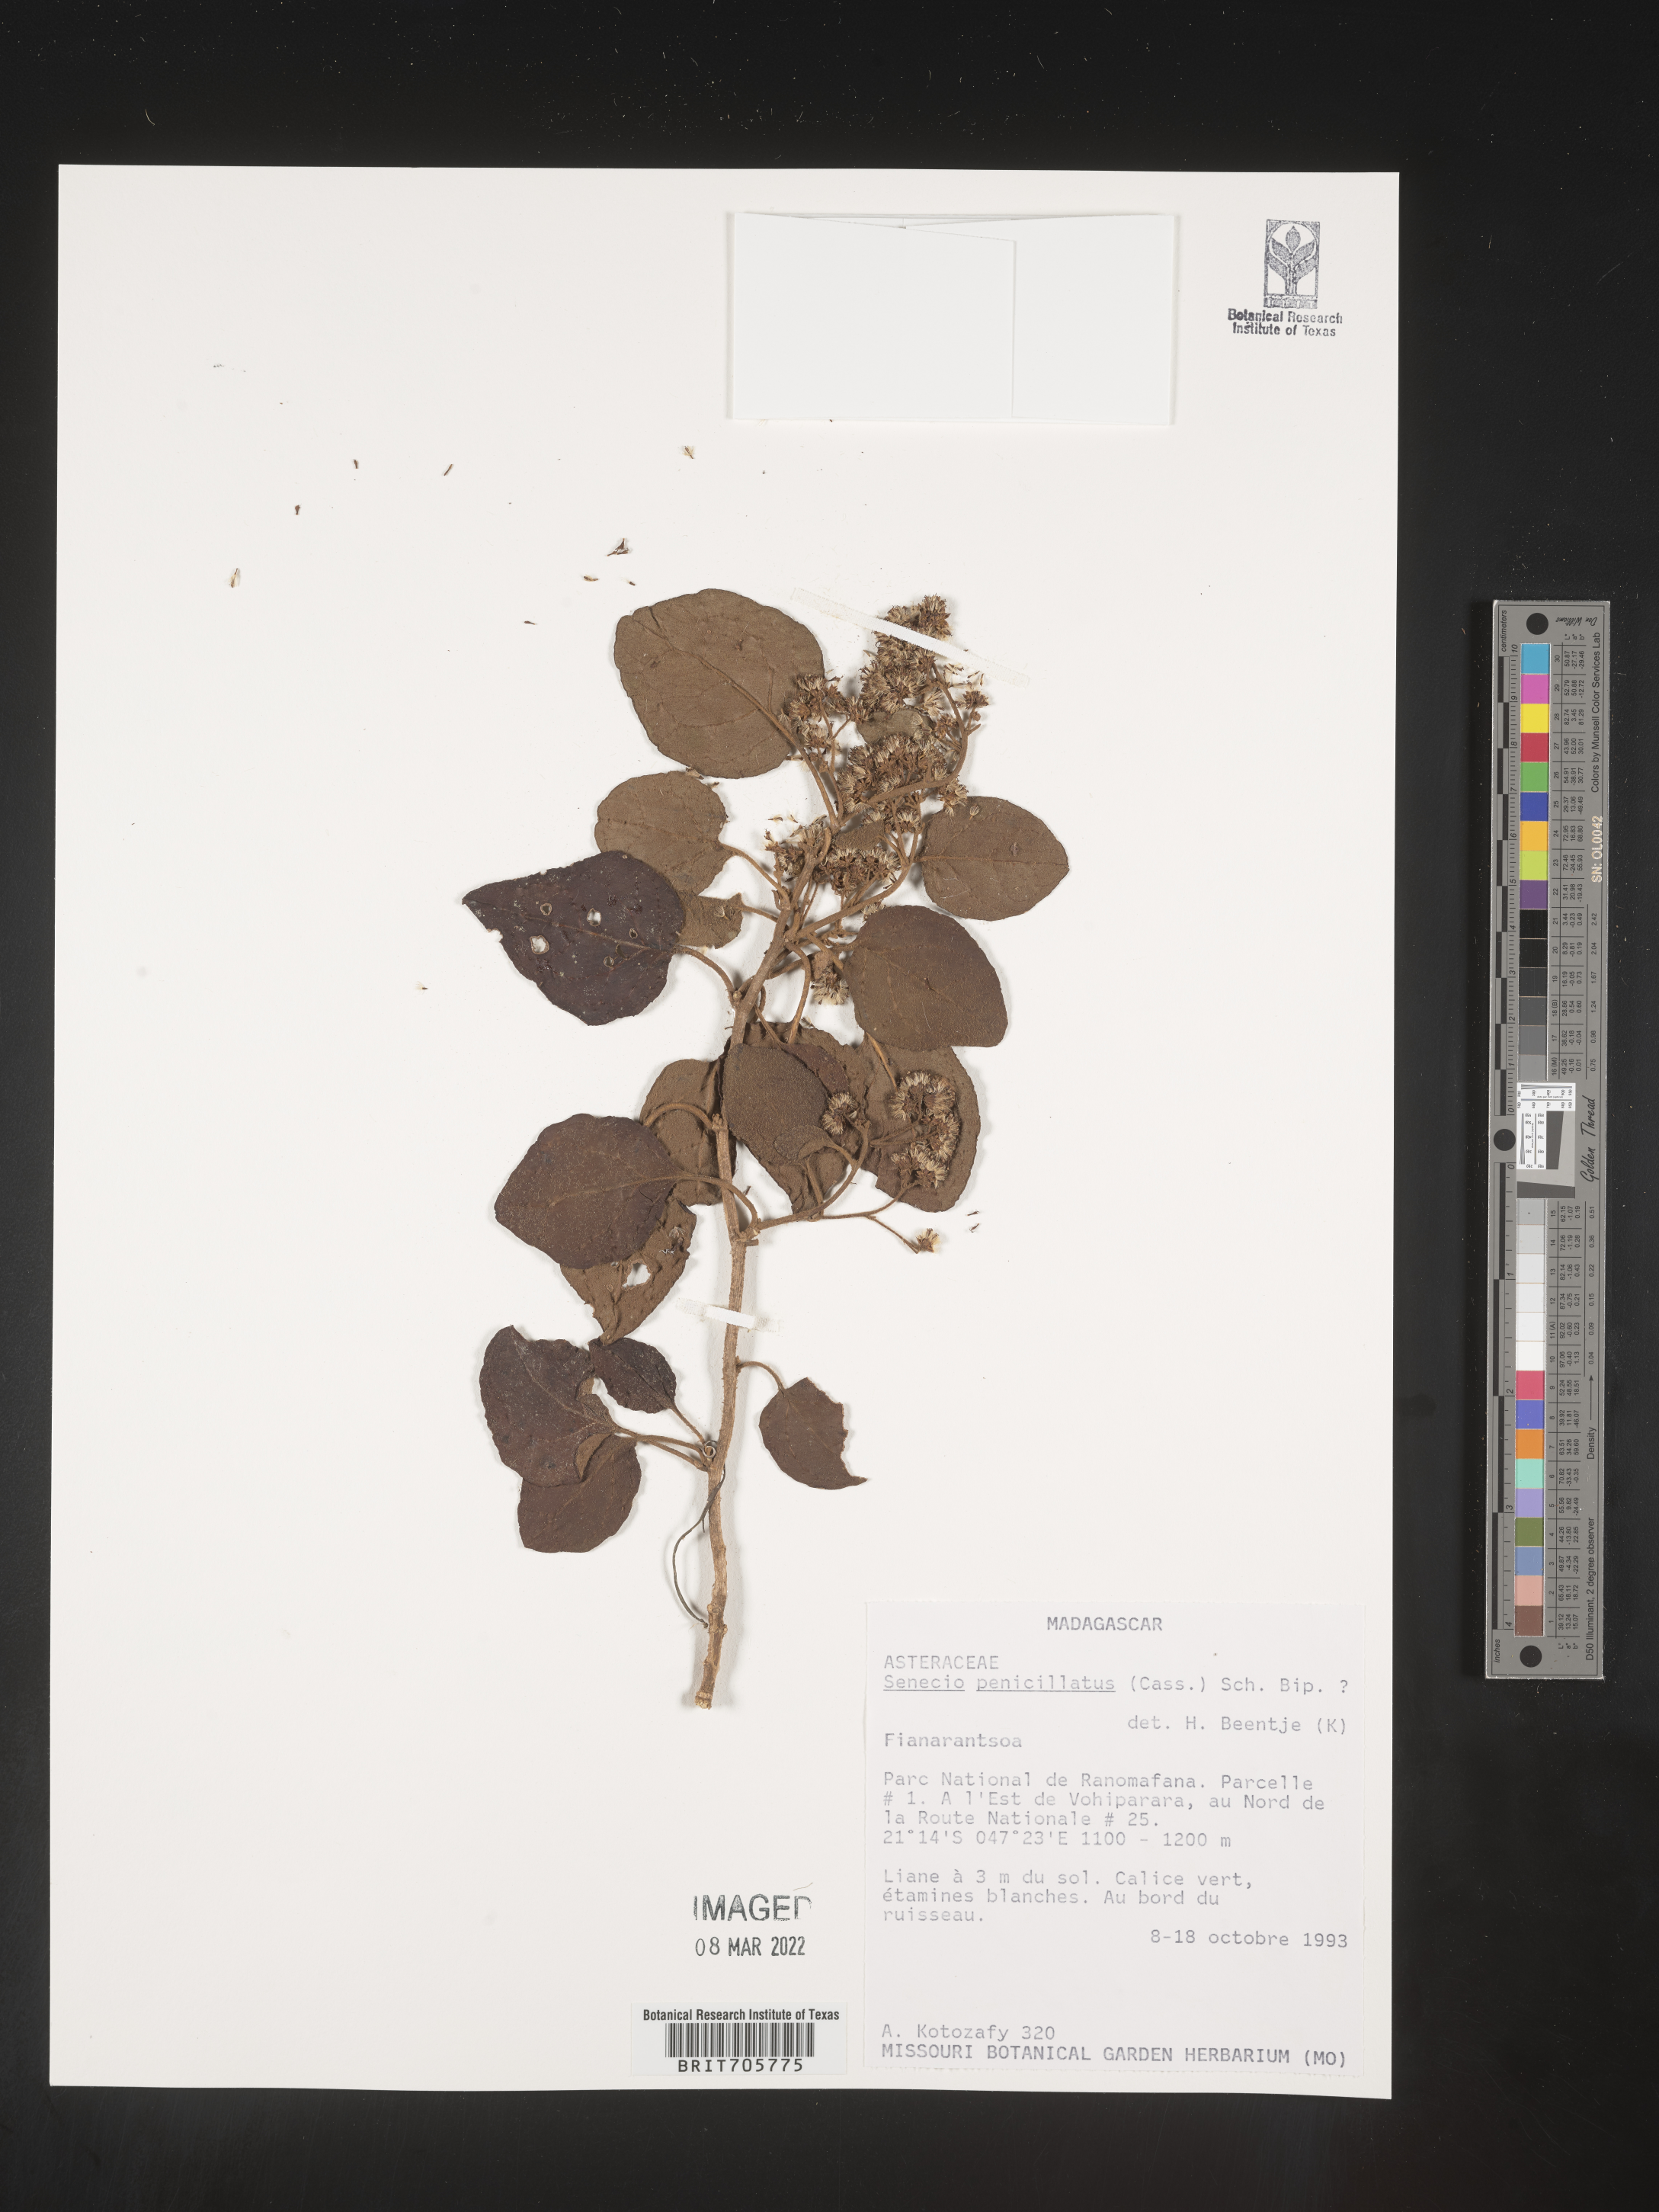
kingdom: Plantae
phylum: Tracheophyta
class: Magnoliopsida
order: Asterales
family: Asteraceae
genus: Senecio
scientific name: Senecio
